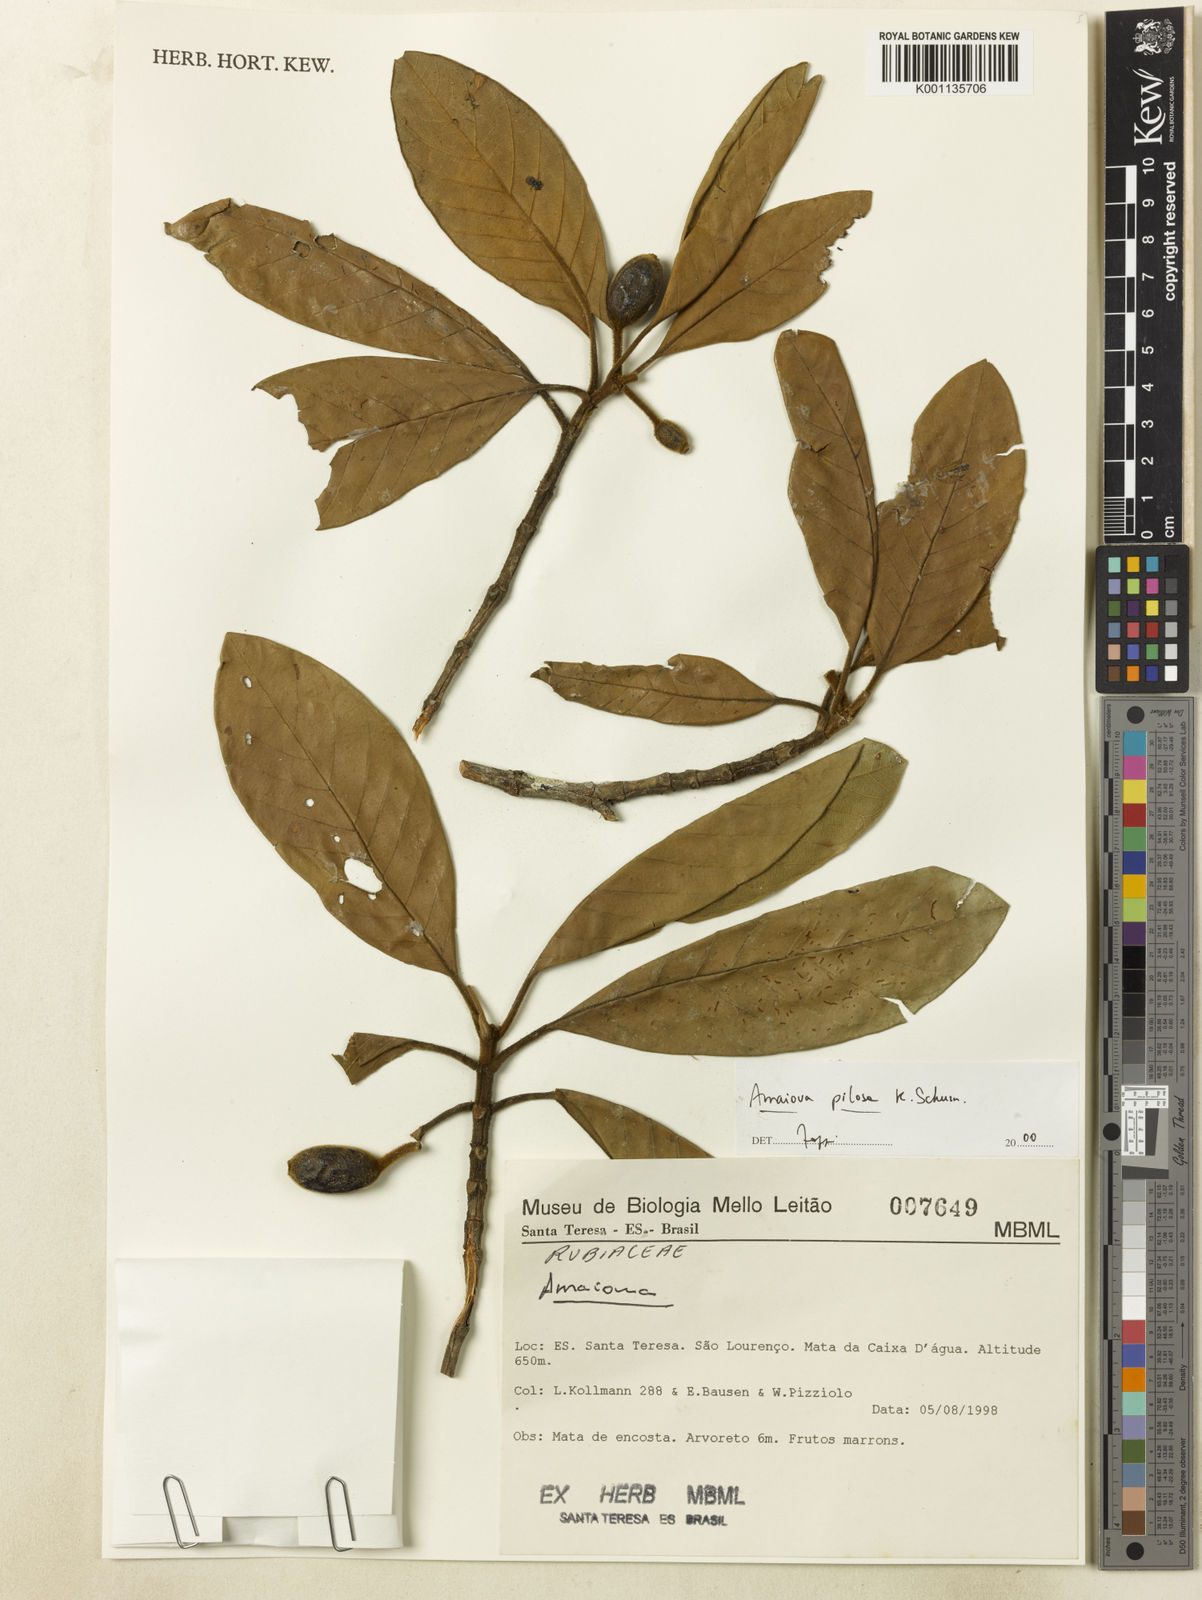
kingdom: Plantae
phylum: Tracheophyta
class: Magnoliopsida
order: Gentianales
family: Rubiaceae
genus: Amaioua
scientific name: Amaioua pilosa
